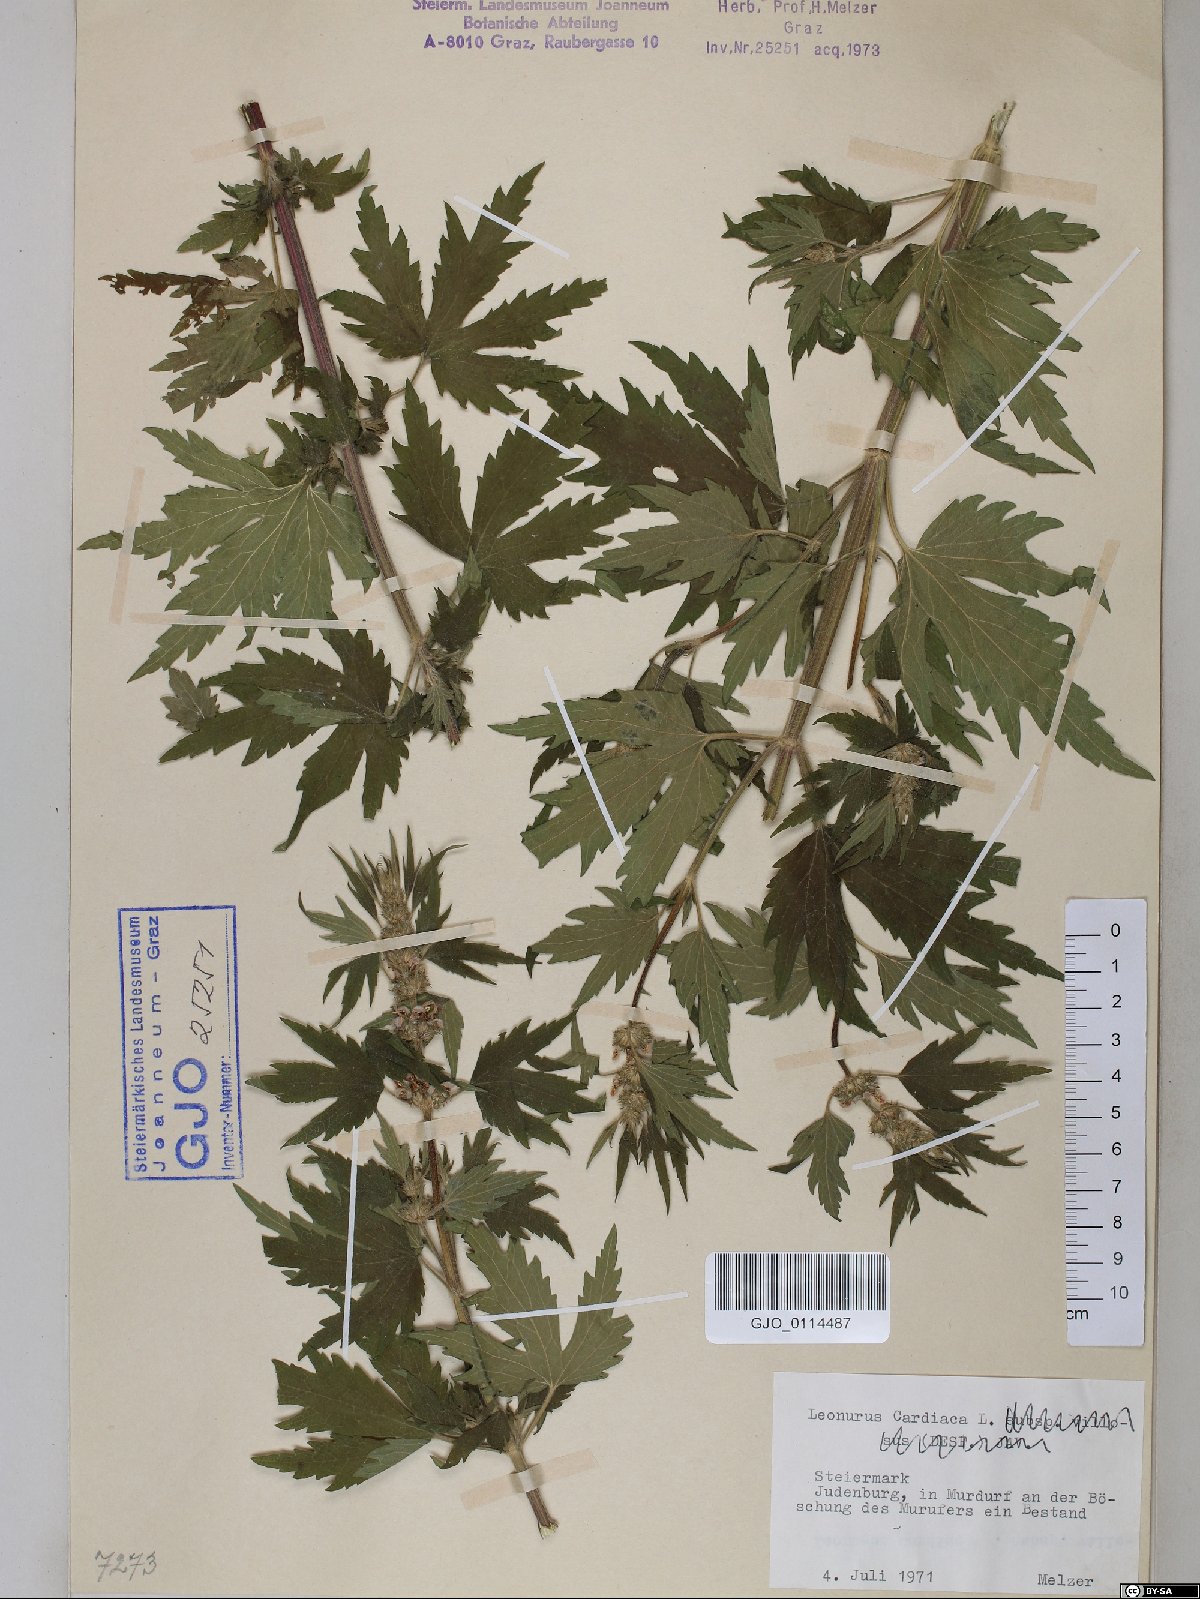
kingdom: Plantae
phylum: Tracheophyta
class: Magnoliopsida
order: Lamiales
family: Lamiaceae
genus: Leonurus
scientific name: Leonurus cardiaca
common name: Motherwort
